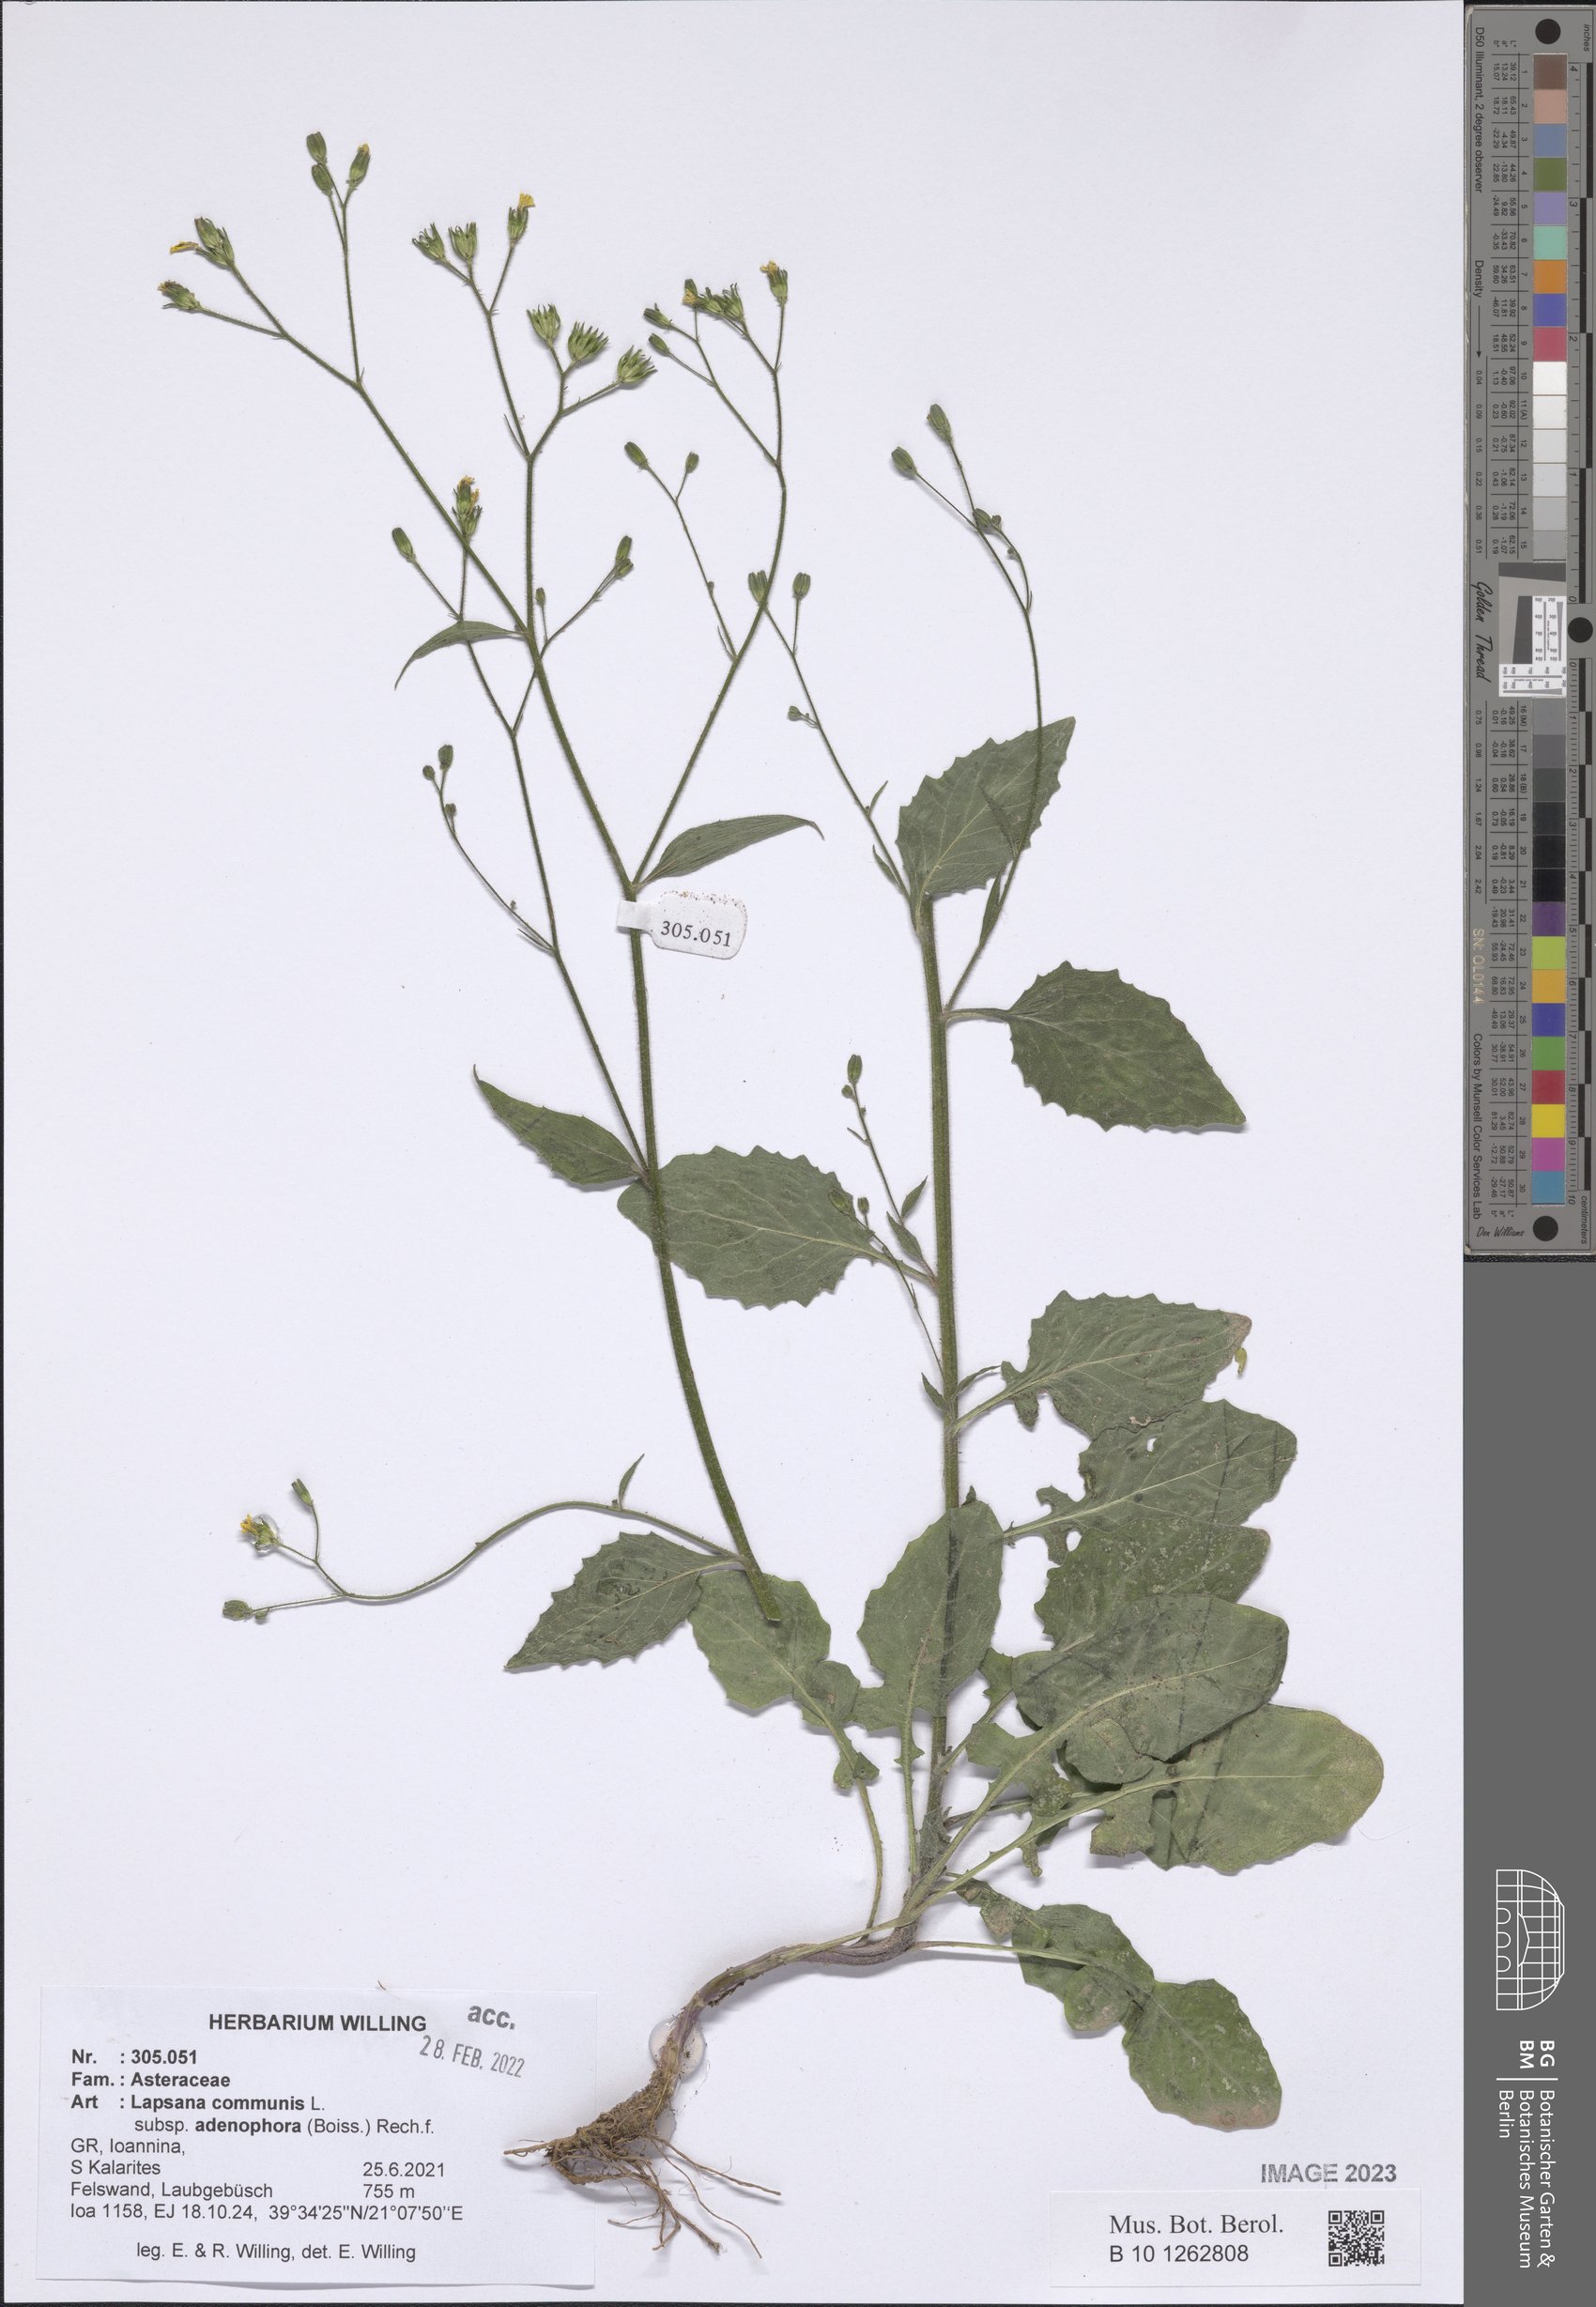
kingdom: Plantae
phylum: Tracheophyta
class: Magnoliopsida
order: Asterales
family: Asteraceae
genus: Lapsana
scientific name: Lapsana communis
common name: Nipplewort
